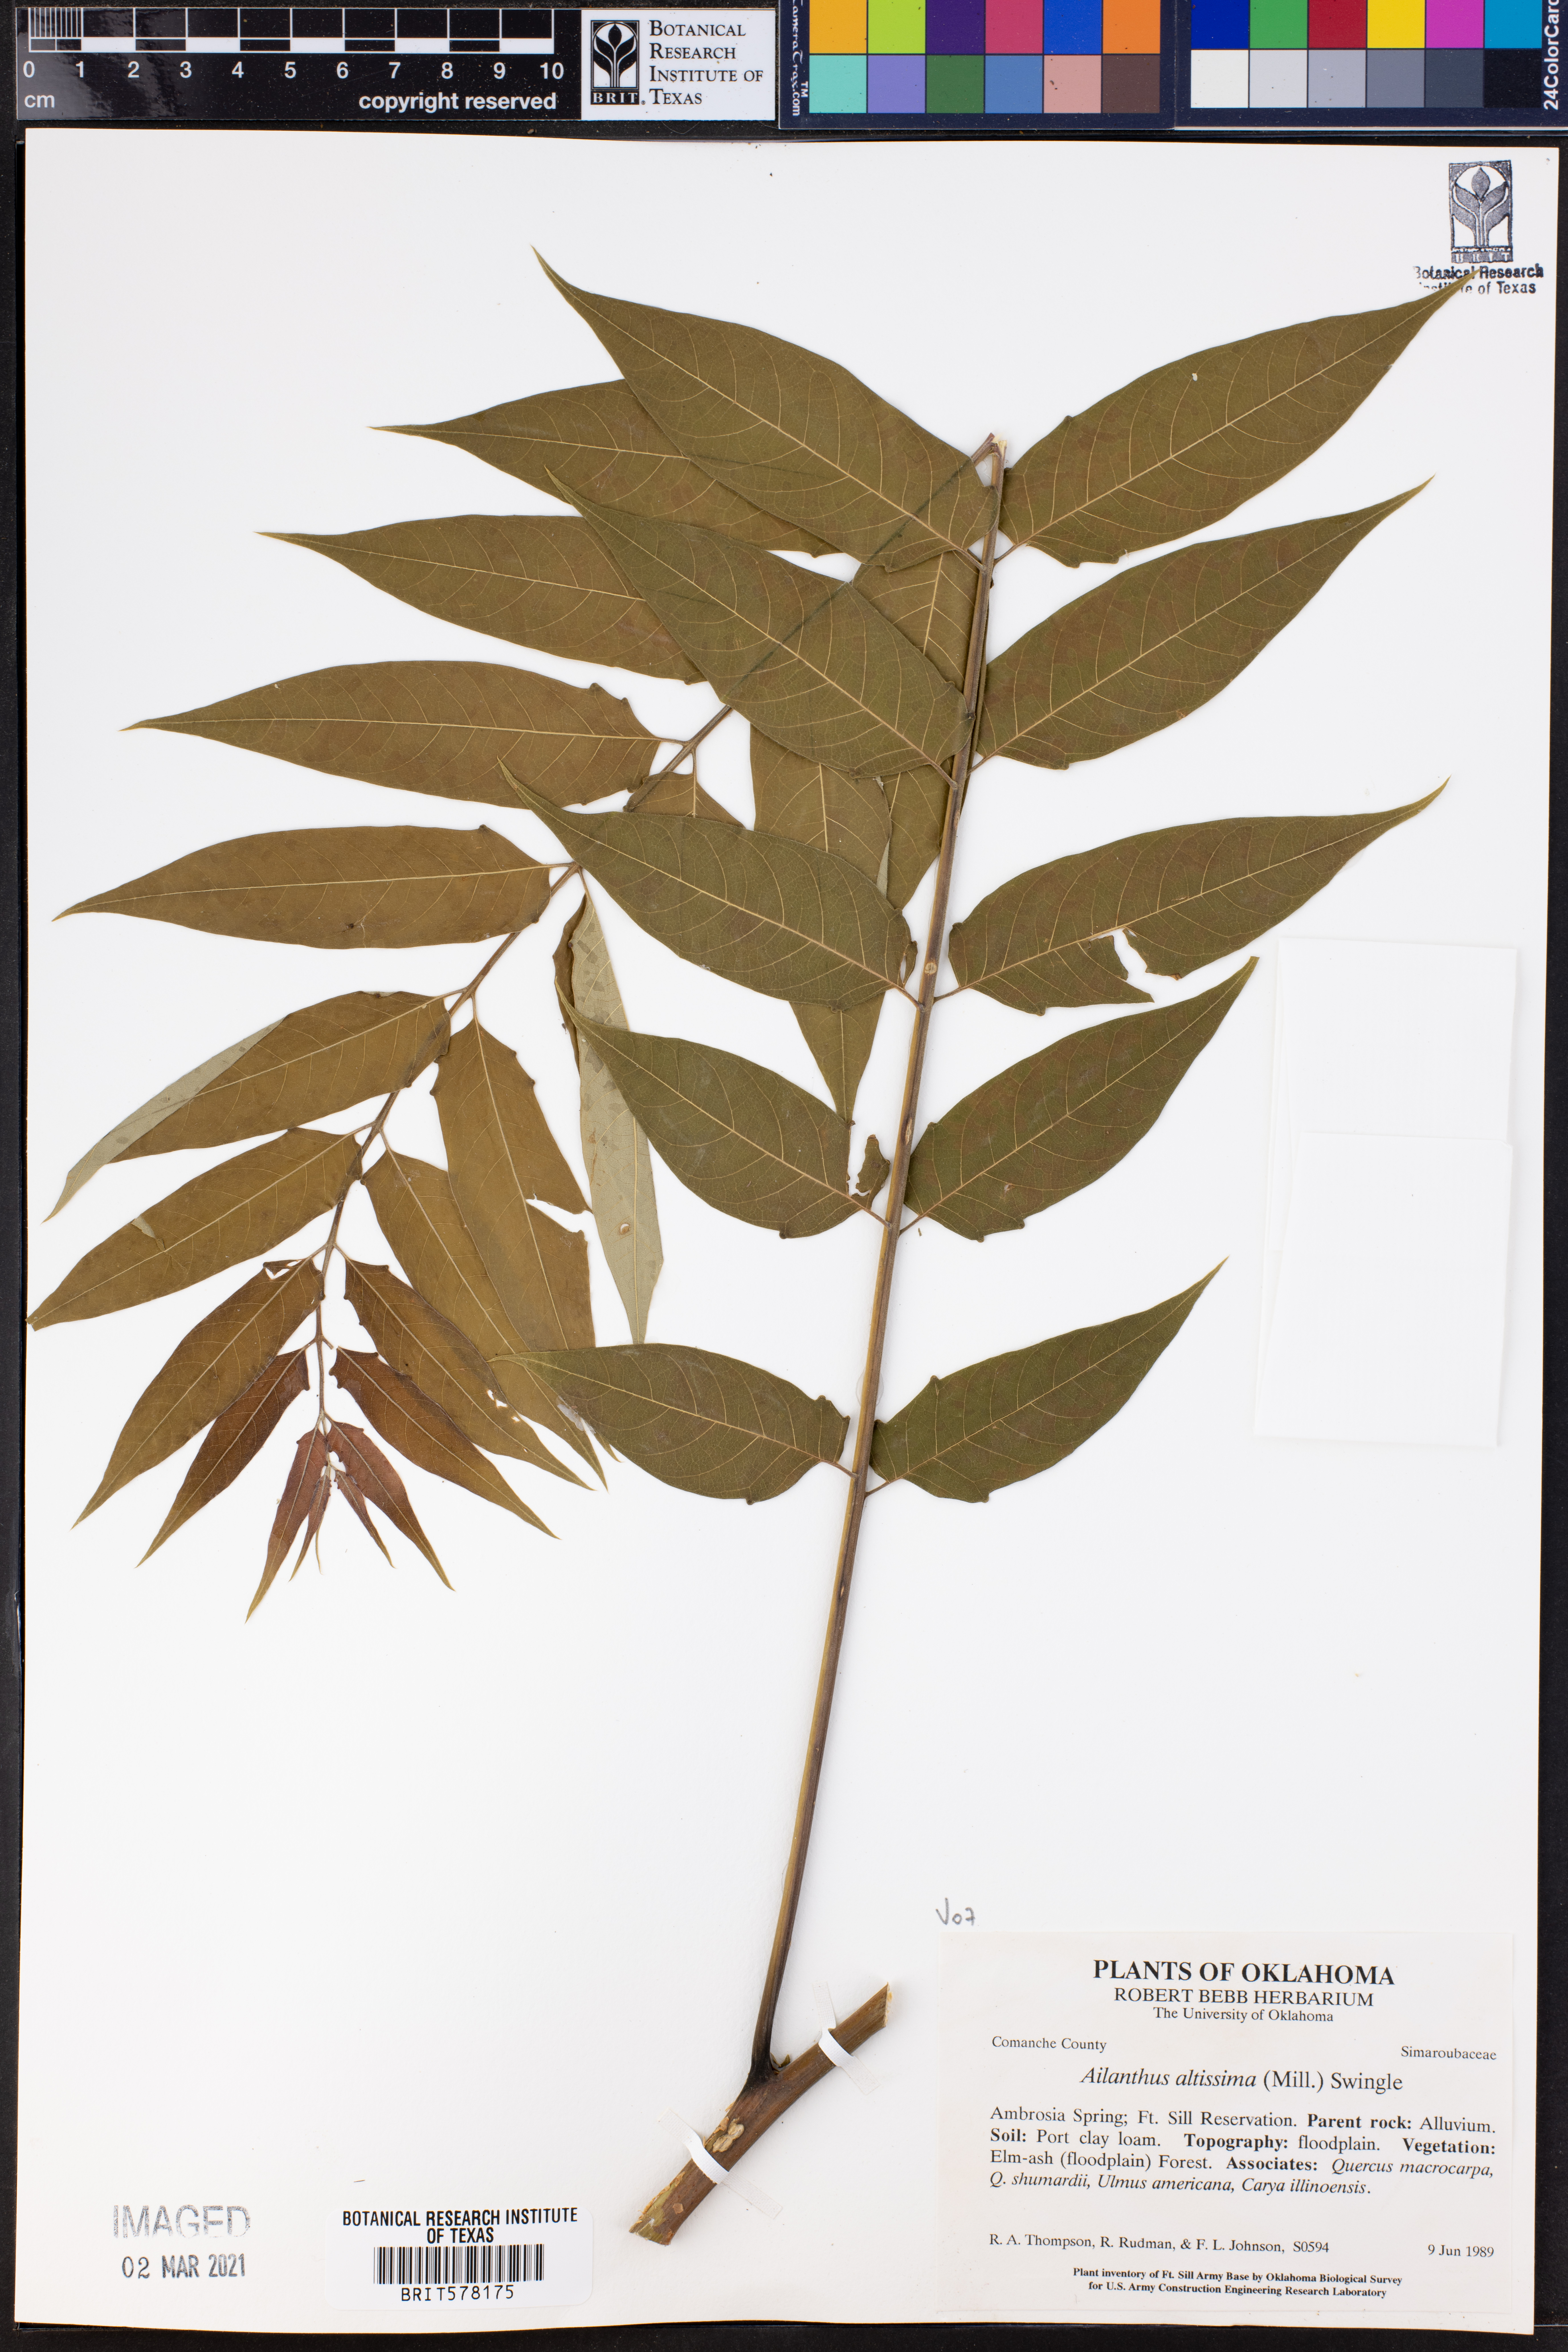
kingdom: Plantae
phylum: Tracheophyta
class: Magnoliopsida
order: Sapindales
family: Simaroubaceae
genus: Ailanthus
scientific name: Ailanthus altissima
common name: Tree-of-heaven
